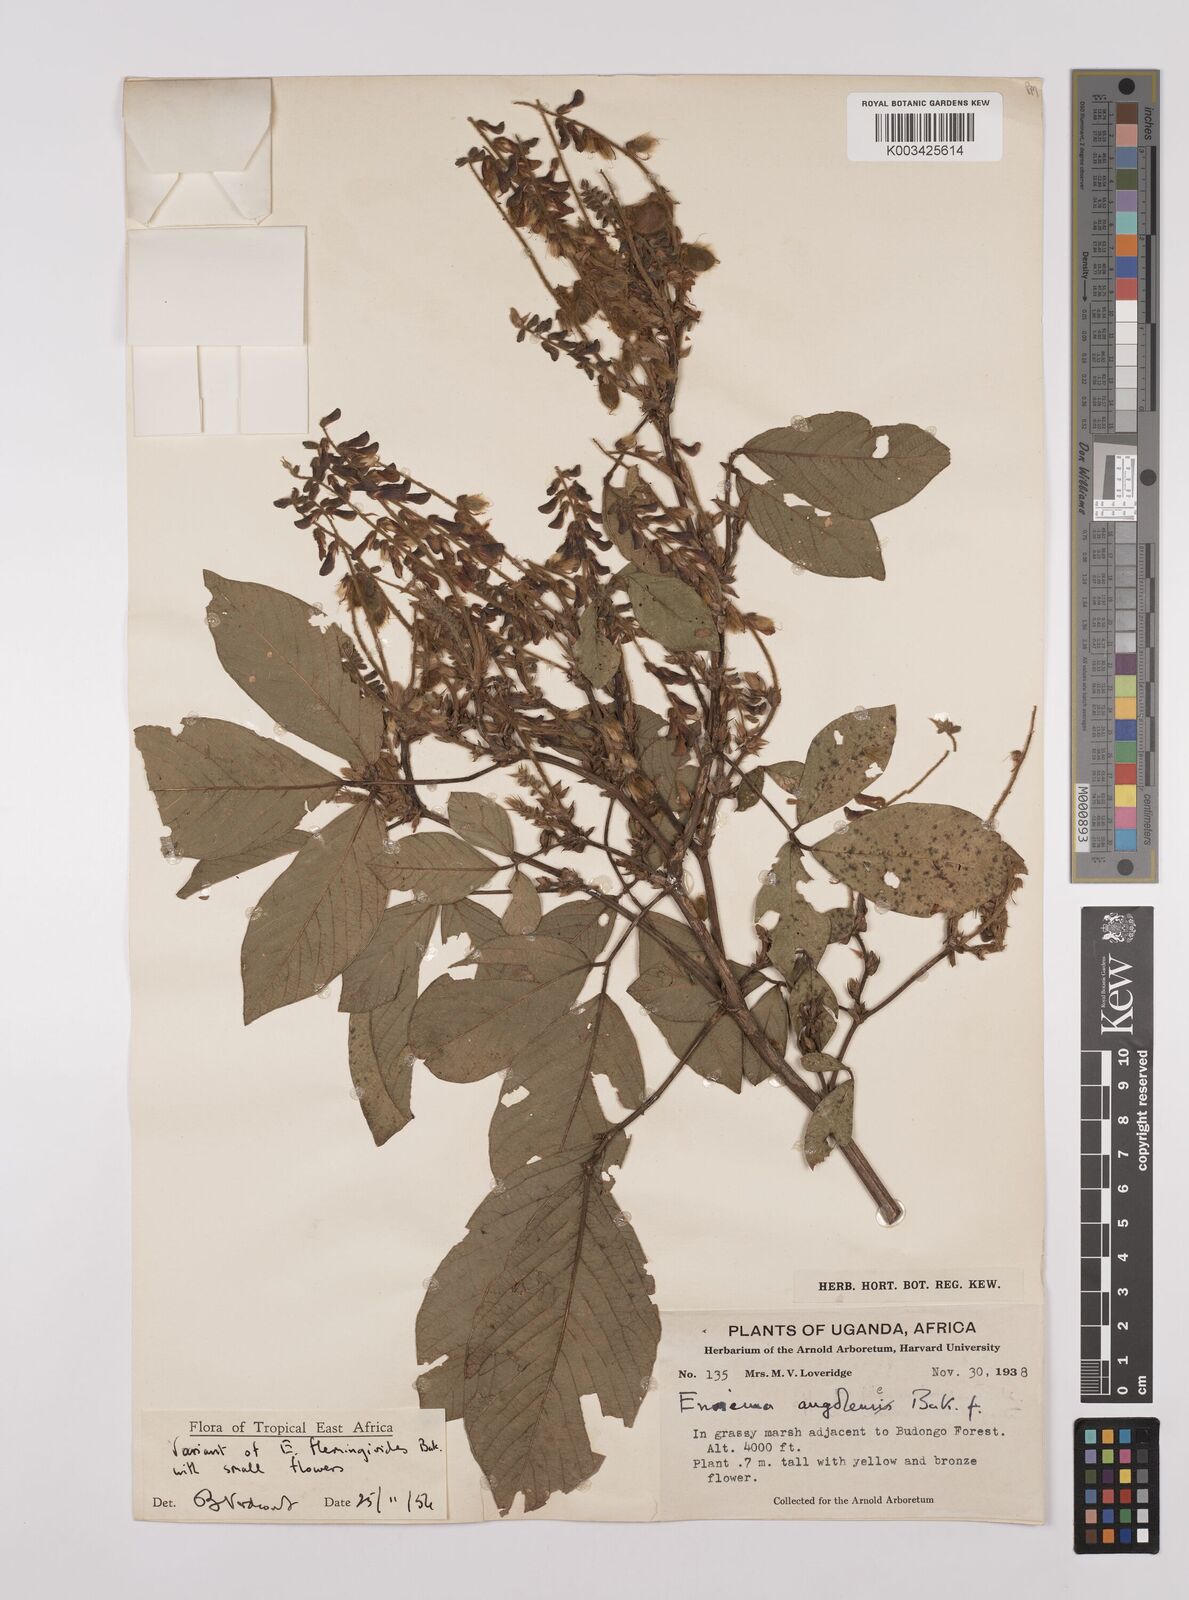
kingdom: Plantae
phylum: Tracheophyta
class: Magnoliopsida
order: Fabales
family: Fabaceae
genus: Eriosema
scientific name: Eriosema flemingioides
